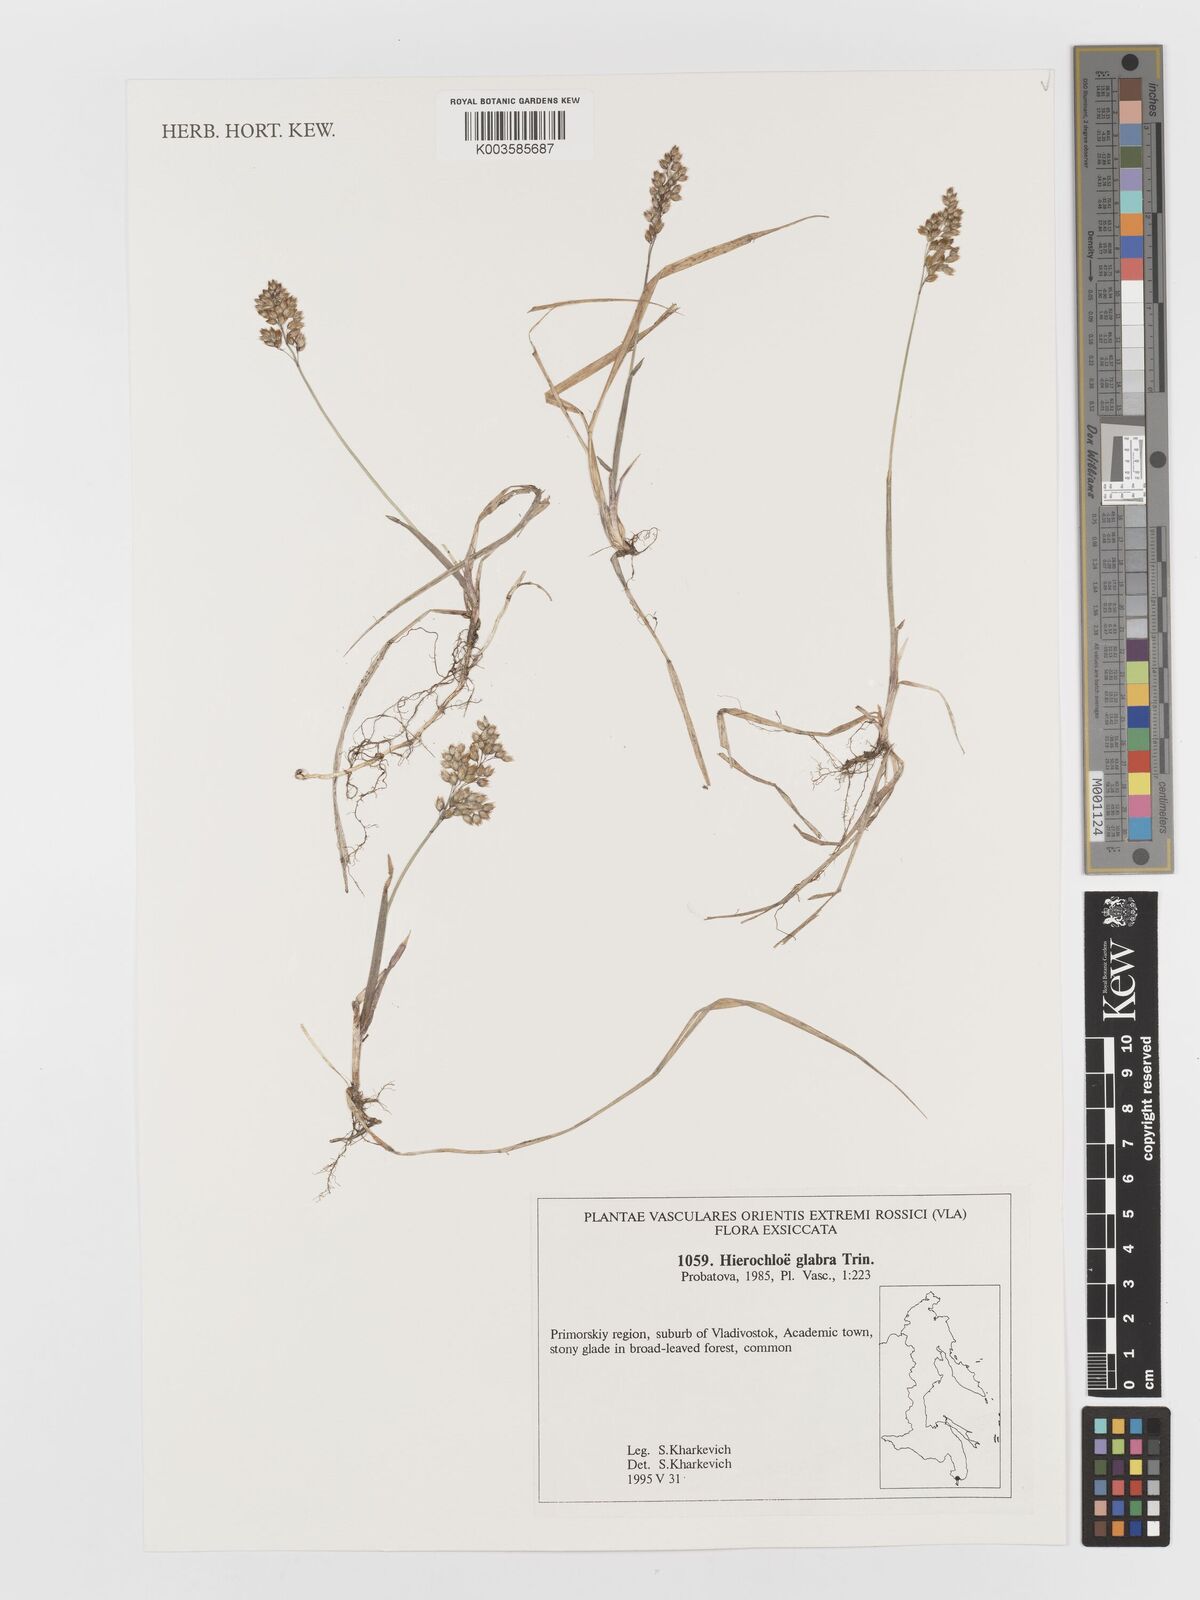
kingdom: Plantae
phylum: Tracheophyta
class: Liliopsida
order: Poales
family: Poaceae
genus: Anthoxanthum
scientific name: Anthoxanthum glabrum
